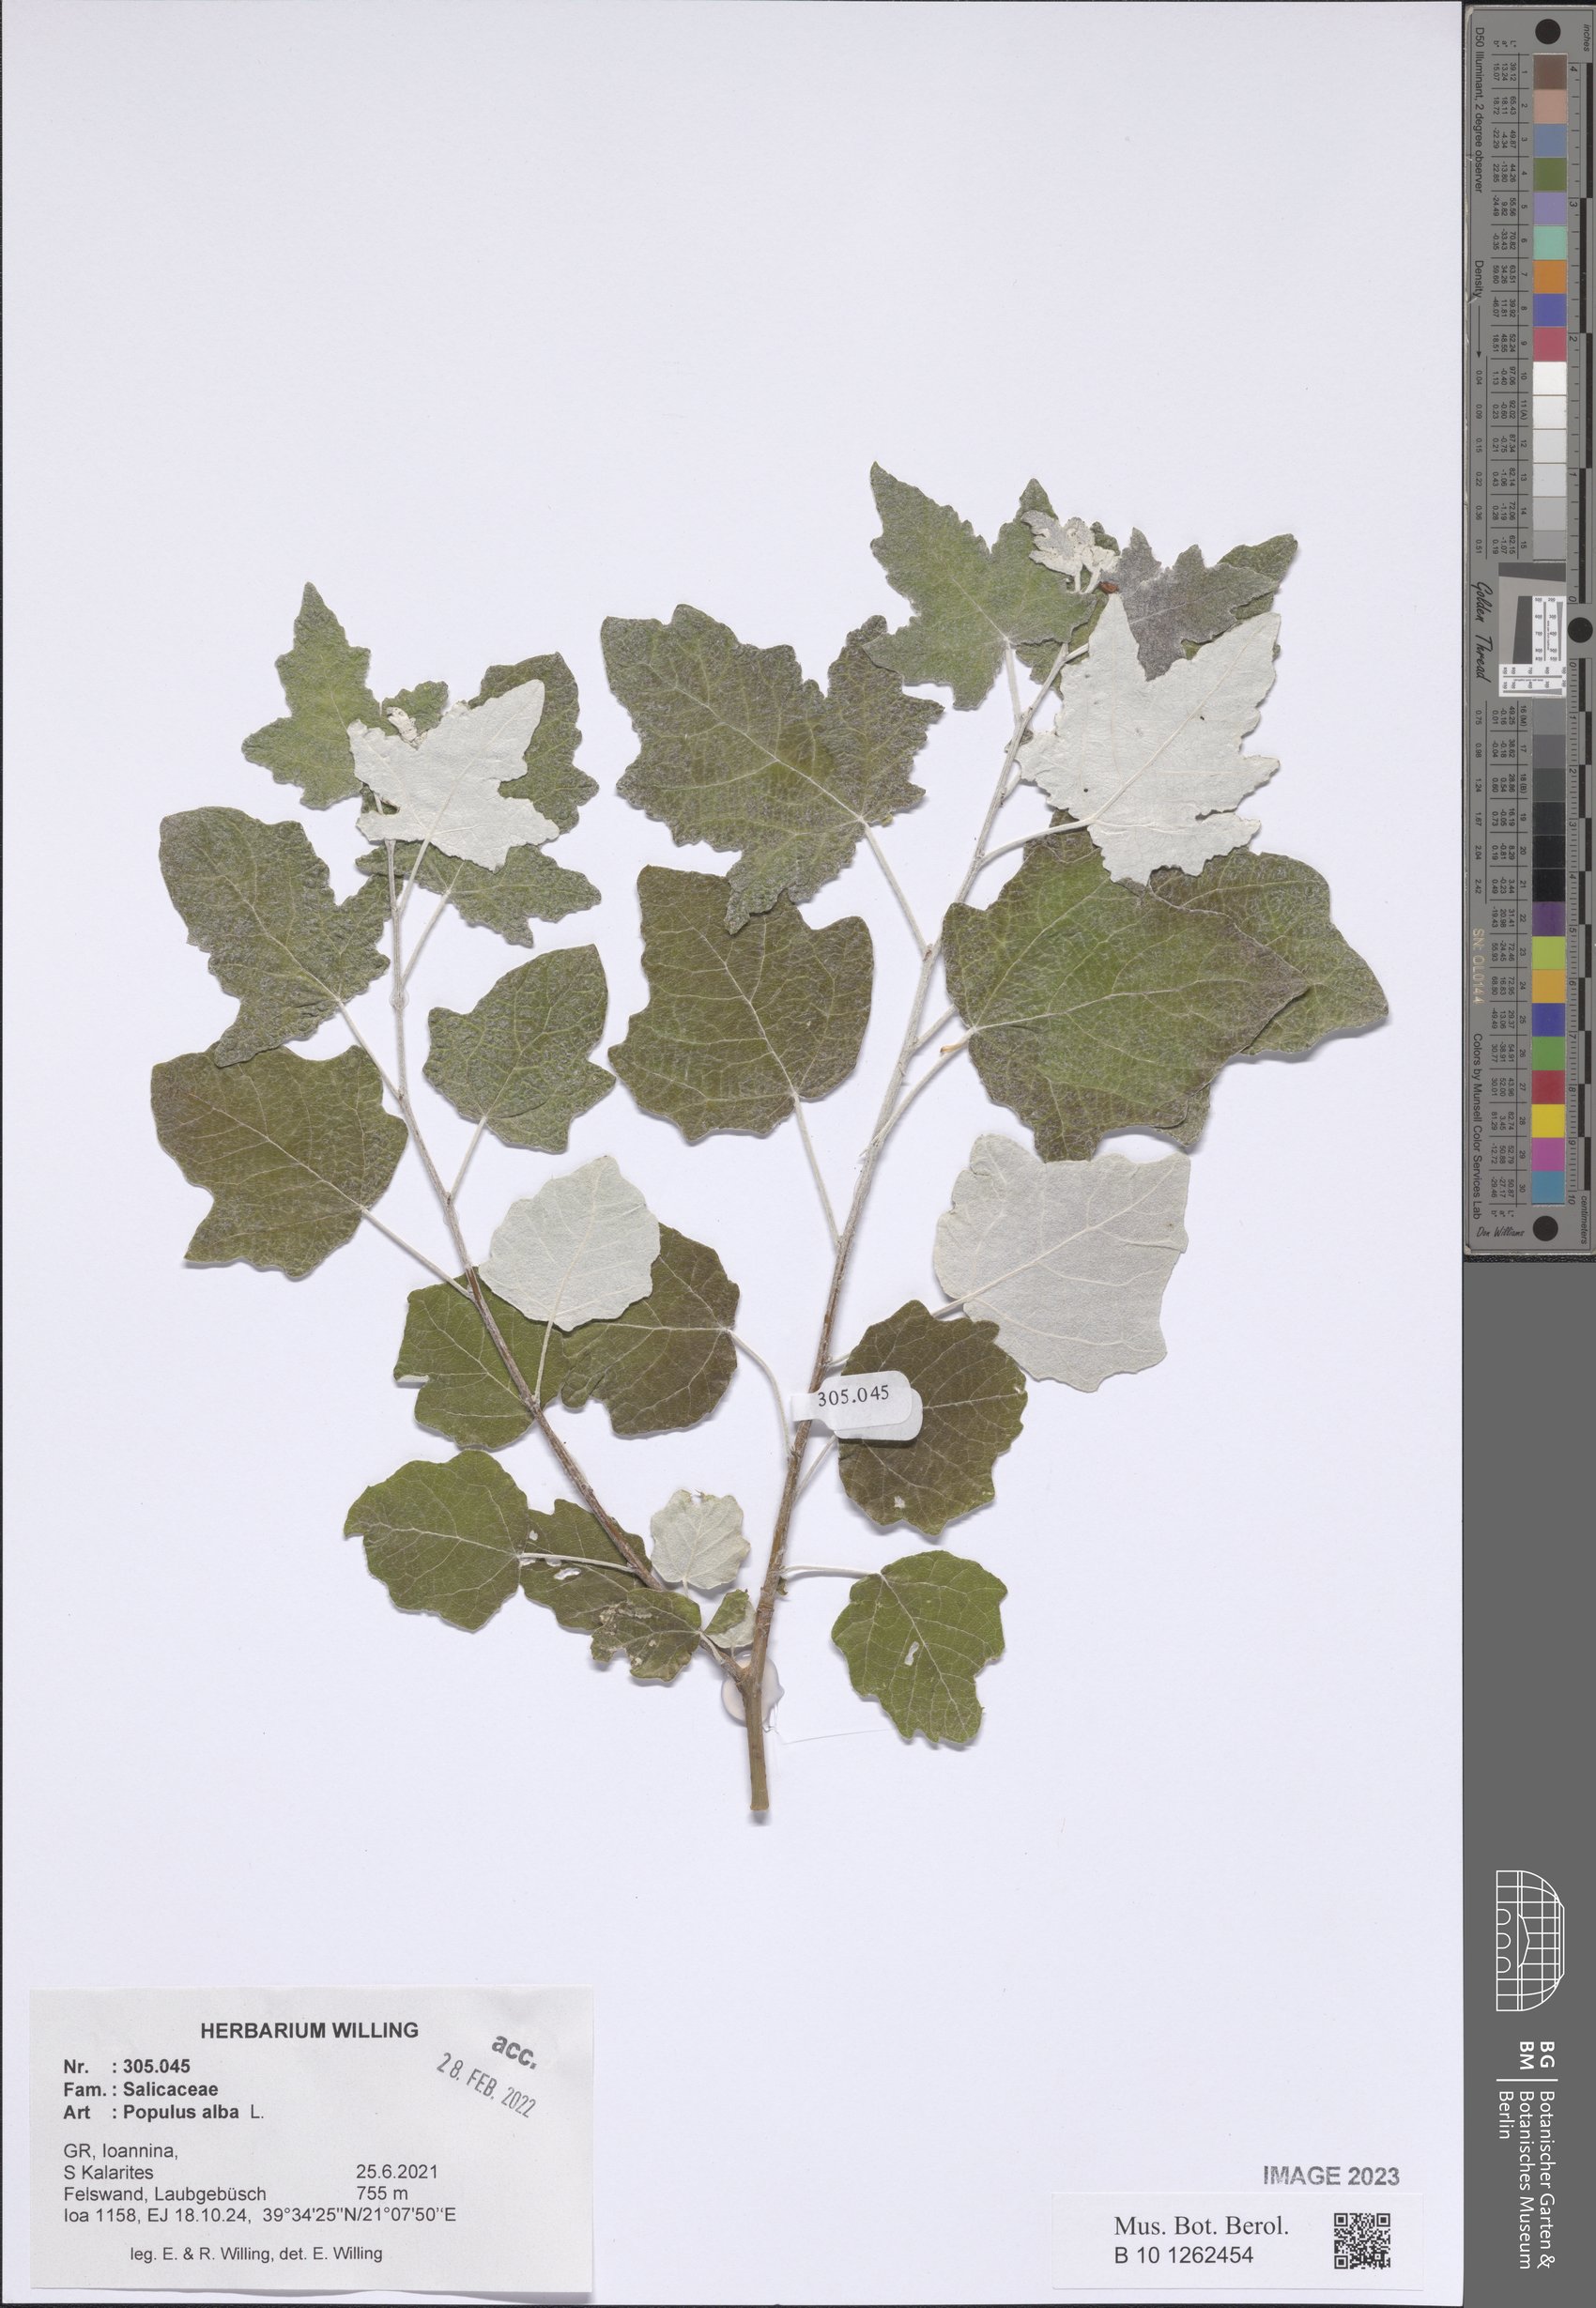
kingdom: Plantae
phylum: Tracheophyta
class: Magnoliopsida
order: Malpighiales
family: Salicaceae
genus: Populus
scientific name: Populus alba
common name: White poplar
